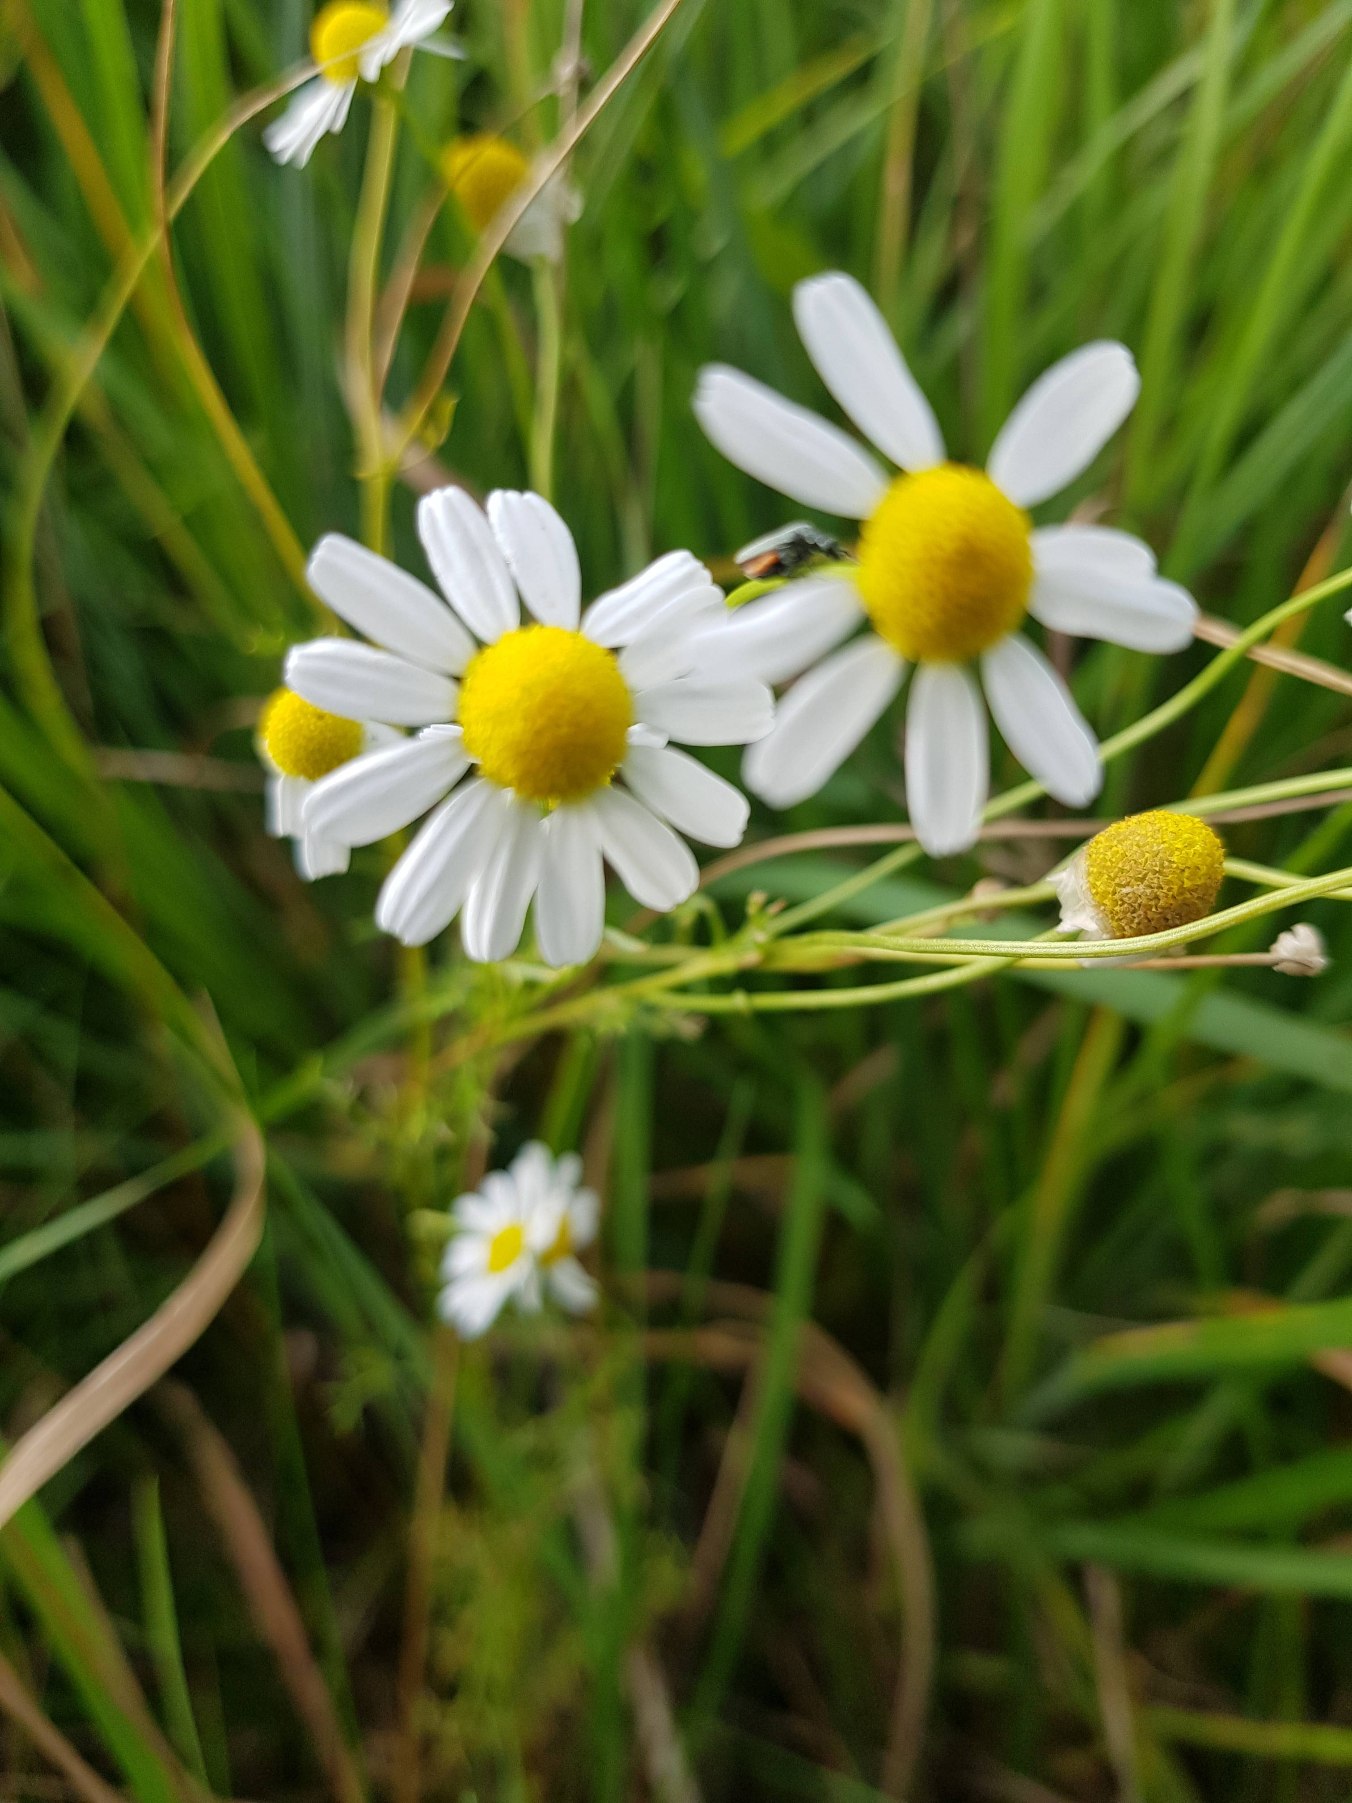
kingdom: Plantae
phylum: Tracheophyta
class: Magnoliopsida
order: Asterales
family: Asteraceae
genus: Matricaria
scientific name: Matricaria chamomilla
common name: Vellugtende kamille
